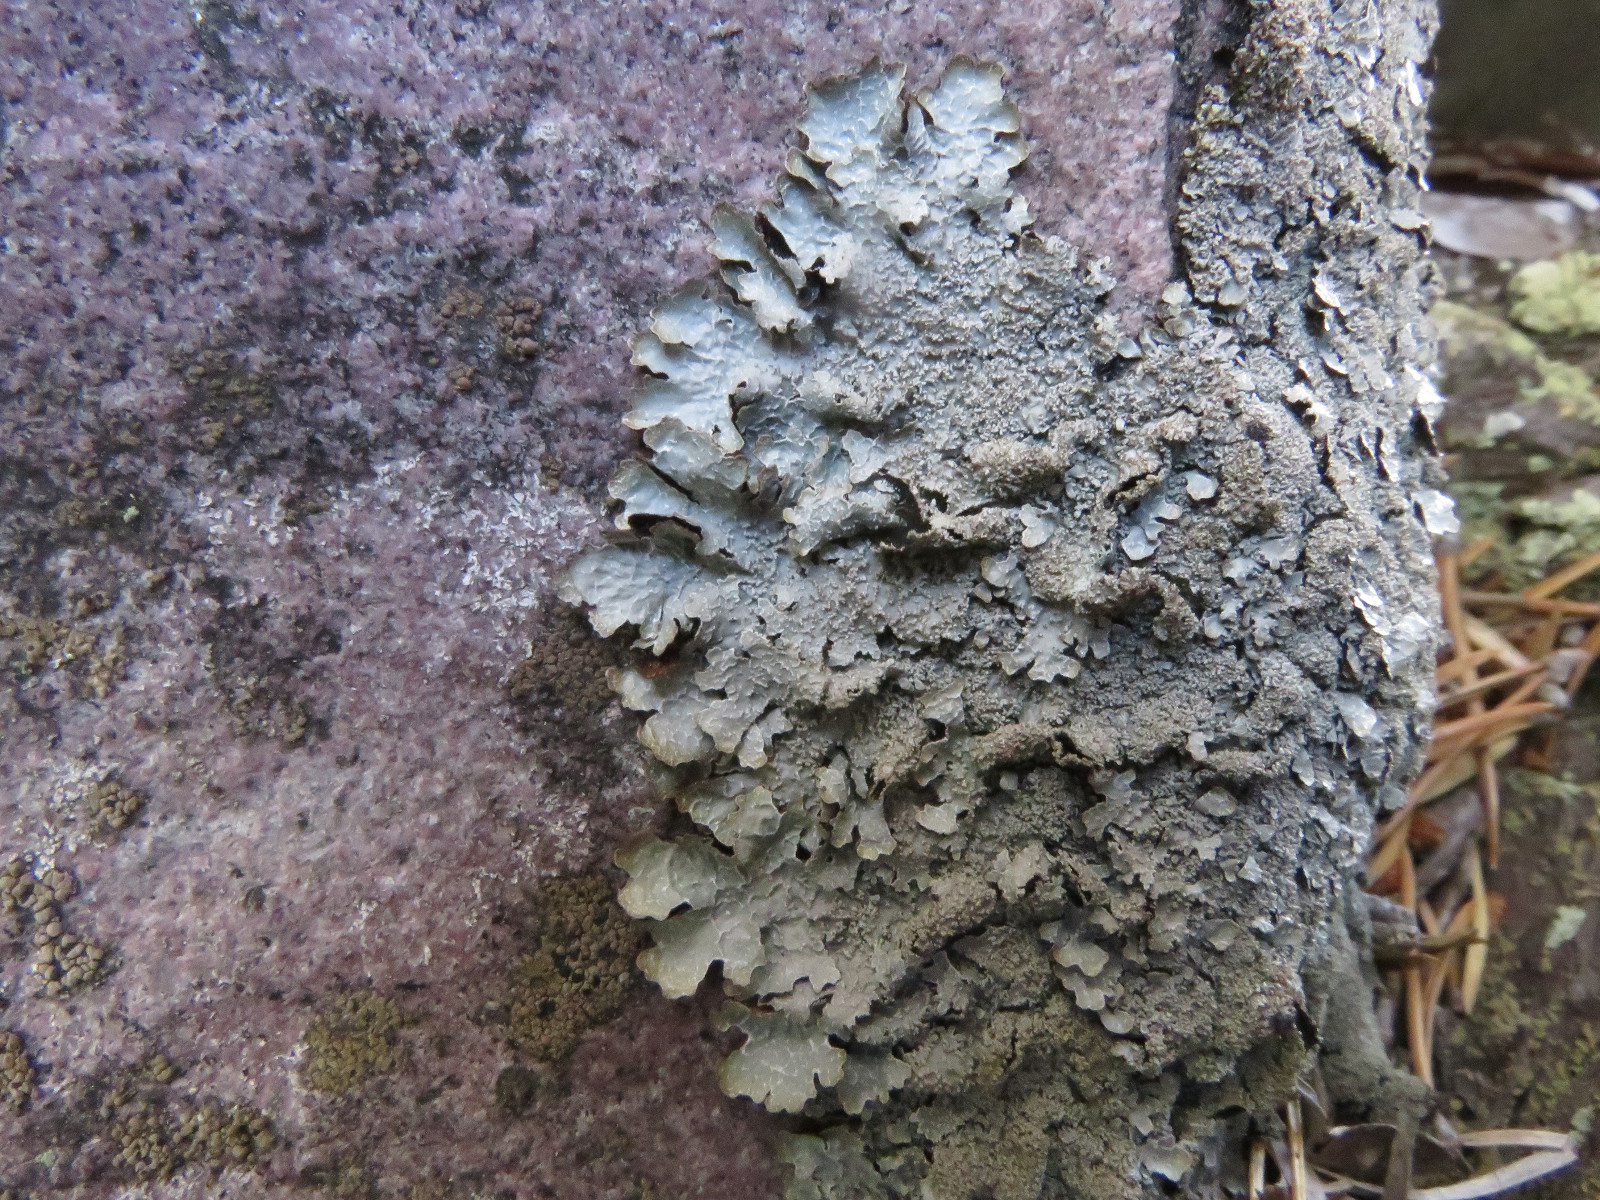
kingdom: Fungi
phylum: Ascomycota
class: Lecanoromycetes
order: Lecanorales
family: Parmeliaceae
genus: Parmelia
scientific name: Parmelia saxatilis
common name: farve-skållav
